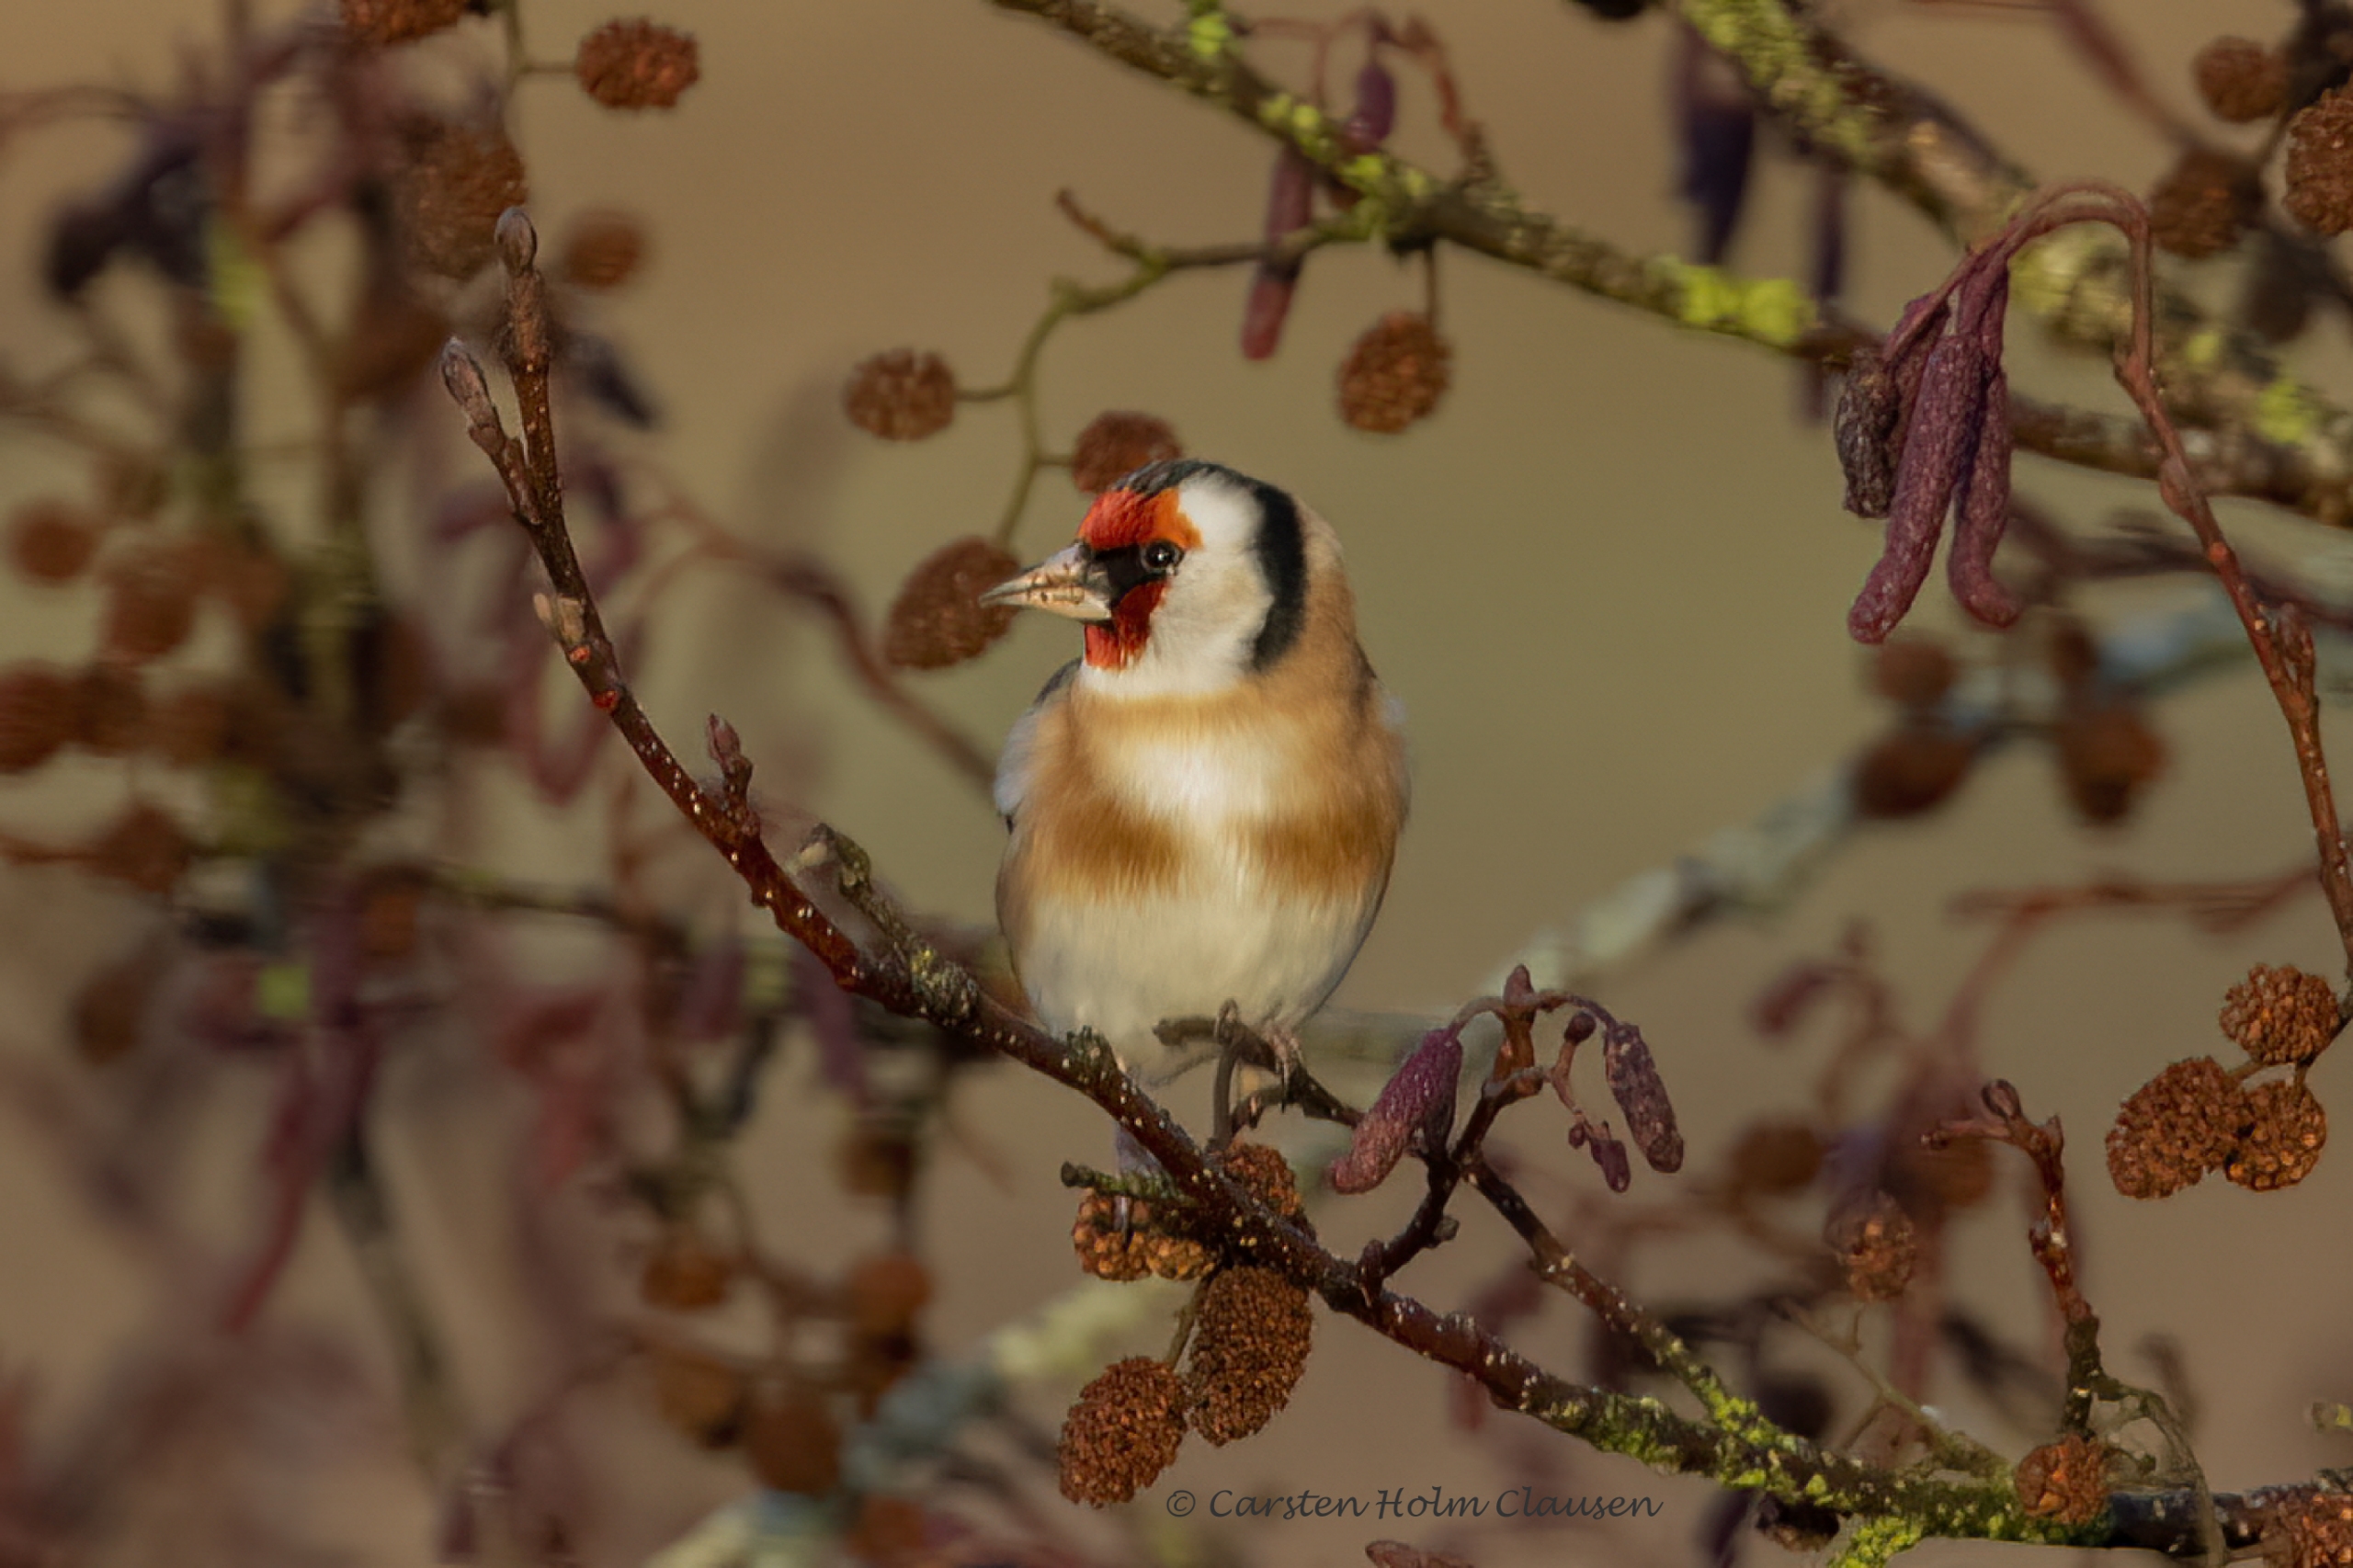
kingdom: Animalia
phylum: Chordata
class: Aves
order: Passeriformes
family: Fringillidae
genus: Carduelis
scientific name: Carduelis carduelis
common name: Stillits
